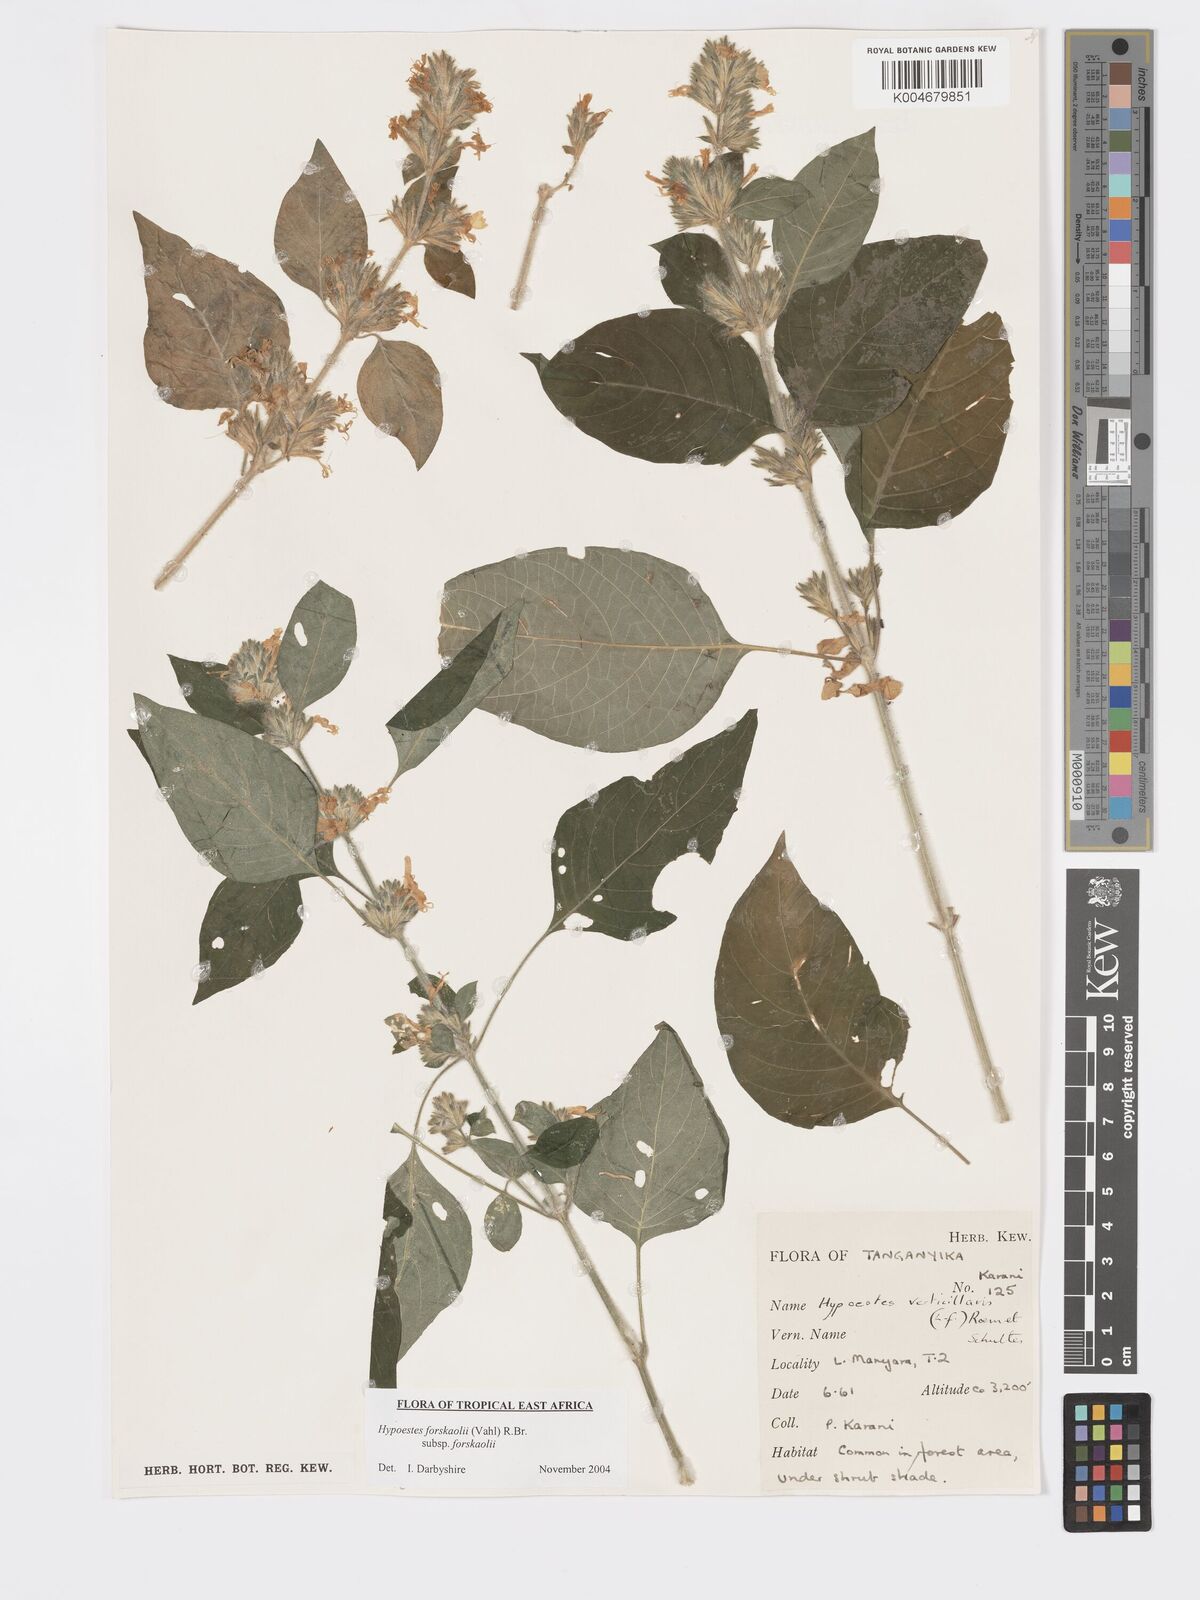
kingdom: Plantae
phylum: Tracheophyta
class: Magnoliopsida
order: Lamiales
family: Acanthaceae
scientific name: Acanthaceae
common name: Acanthaceae
